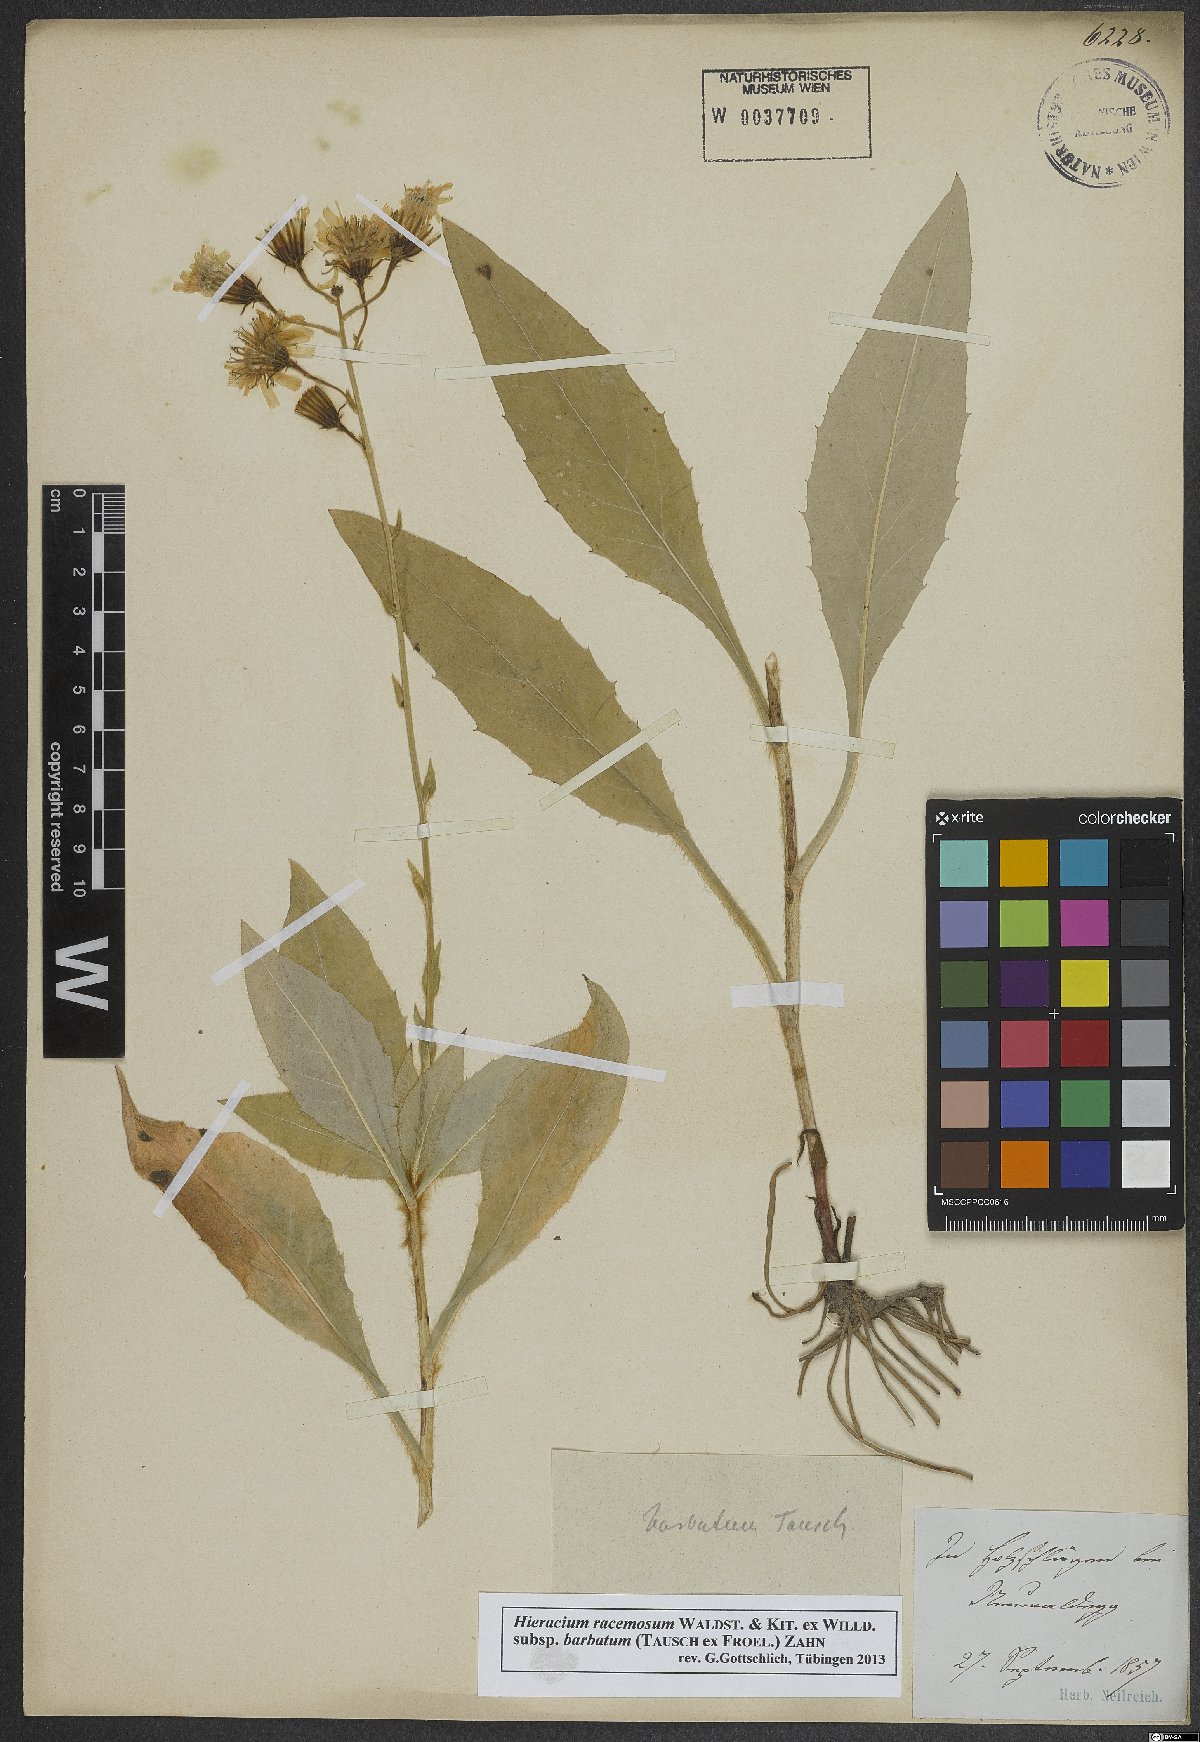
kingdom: Plantae
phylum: Tracheophyta
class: Magnoliopsida
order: Asterales
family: Asteraceae
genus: Hieracium
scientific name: Hieracium racemosum
